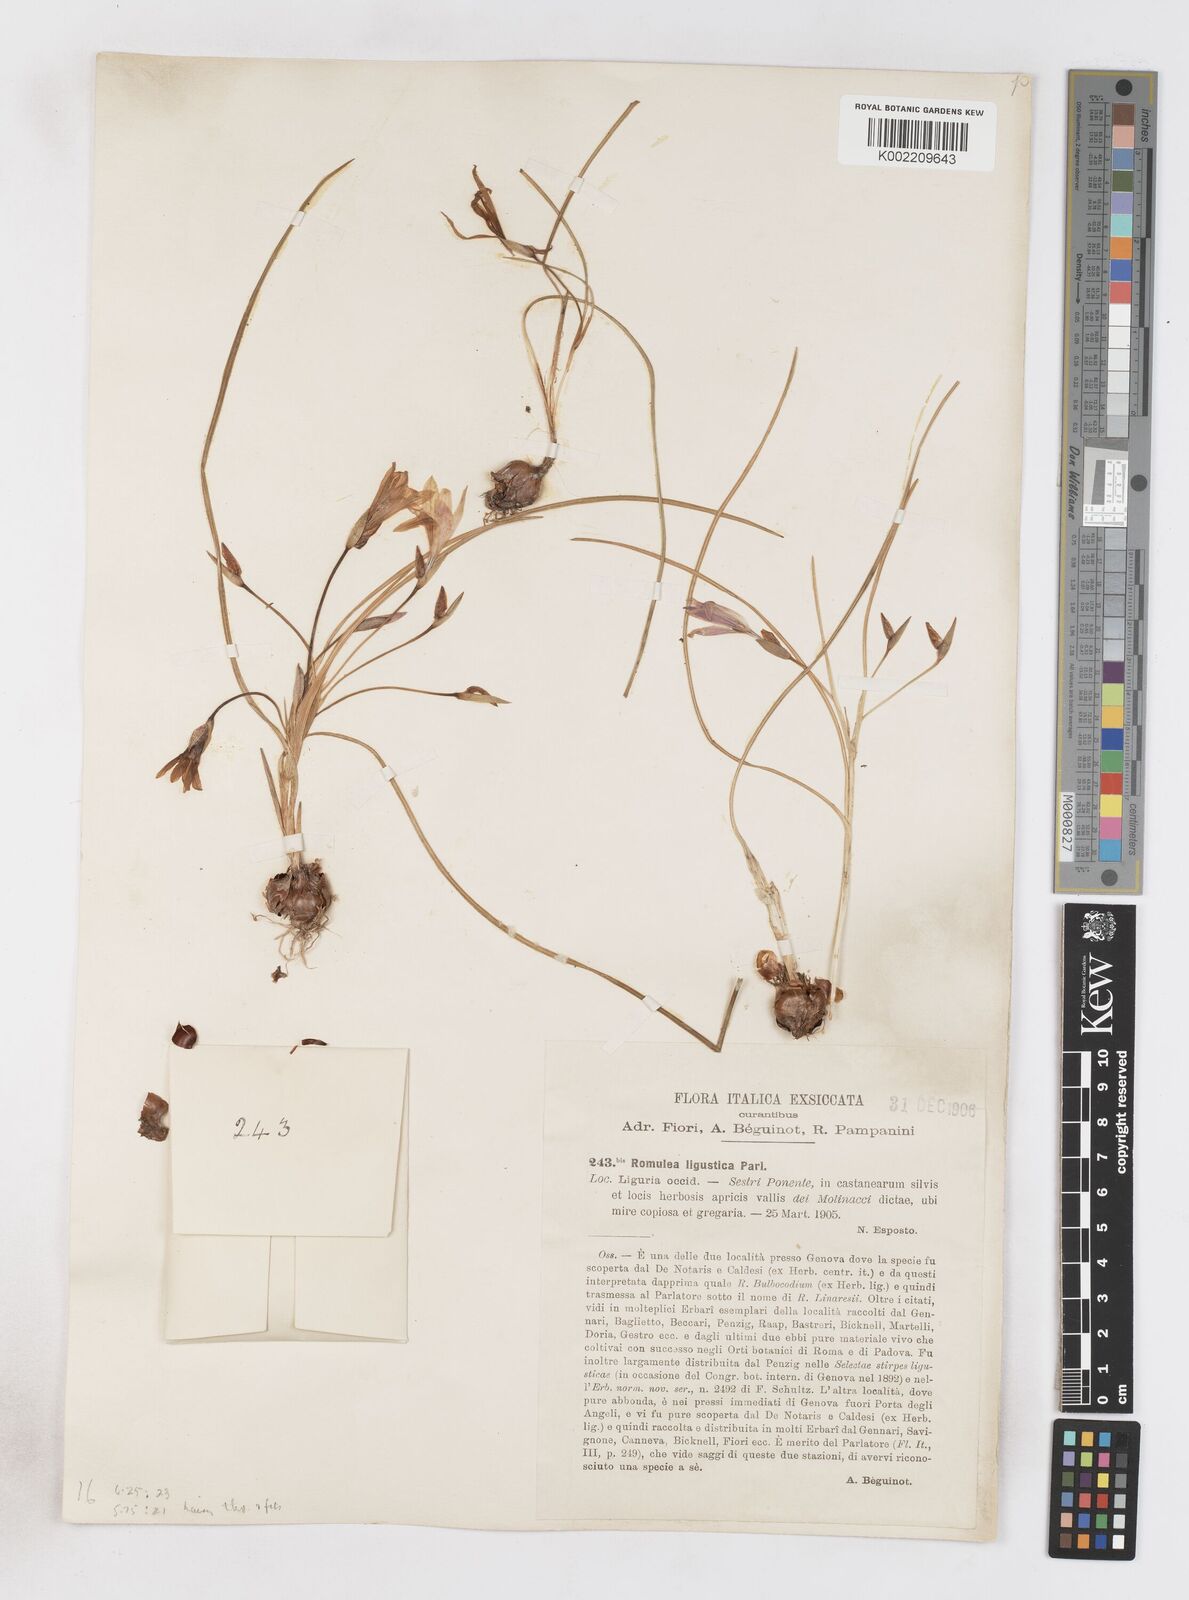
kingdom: Plantae
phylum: Tracheophyta
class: Liliopsida
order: Asparagales
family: Iridaceae
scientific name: Iridaceae
